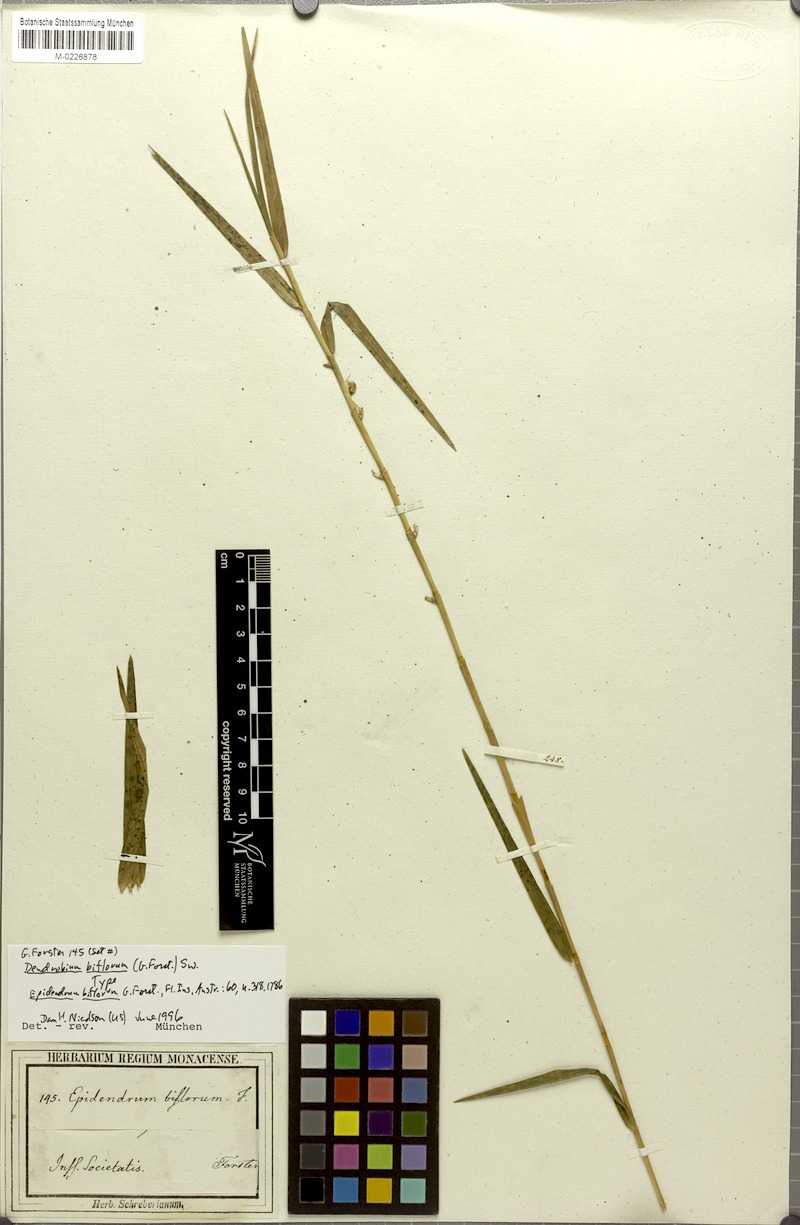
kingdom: Plantae
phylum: Tracheophyta
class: Liliopsida
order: Asparagales
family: Orchidaceae
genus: Dendrobium
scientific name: Dendrobium biflorum
